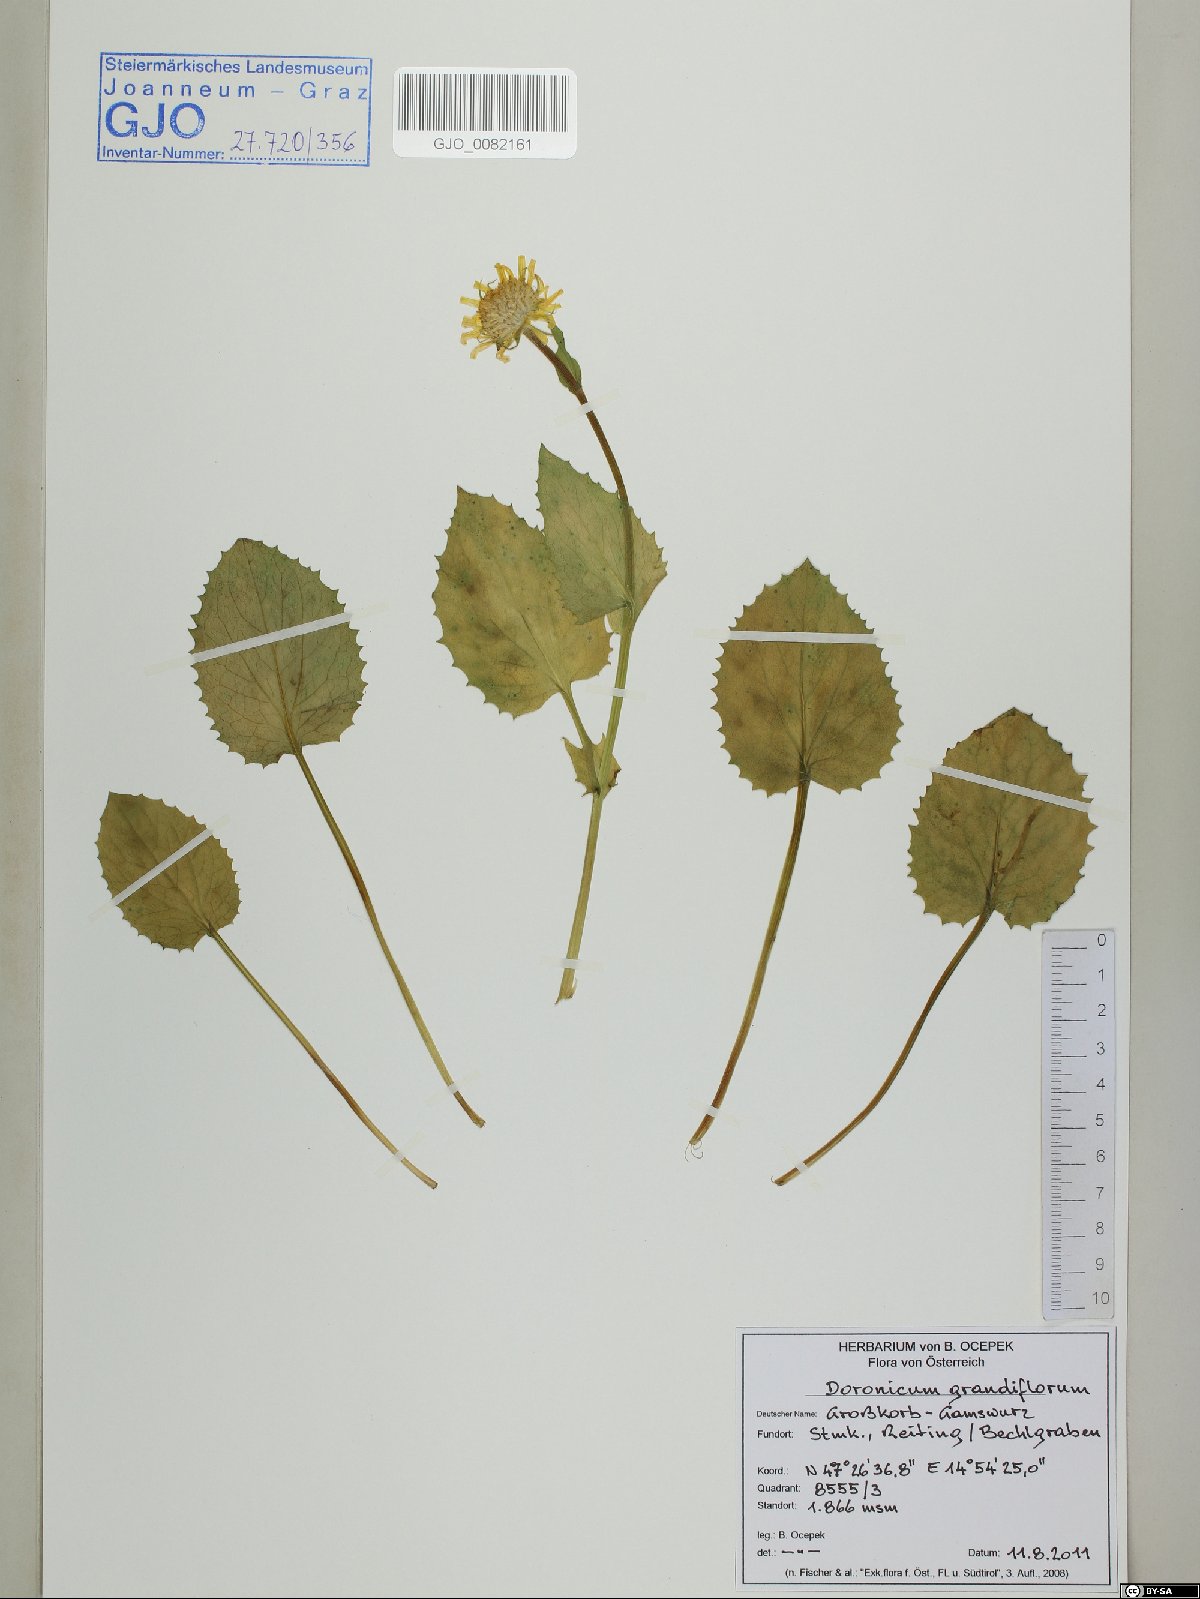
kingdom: Plantae
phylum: Tracheophyta
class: Magnoliopsida
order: Asterales
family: Asteraceae
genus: Doronicum
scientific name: Doronicum grandiflorum
